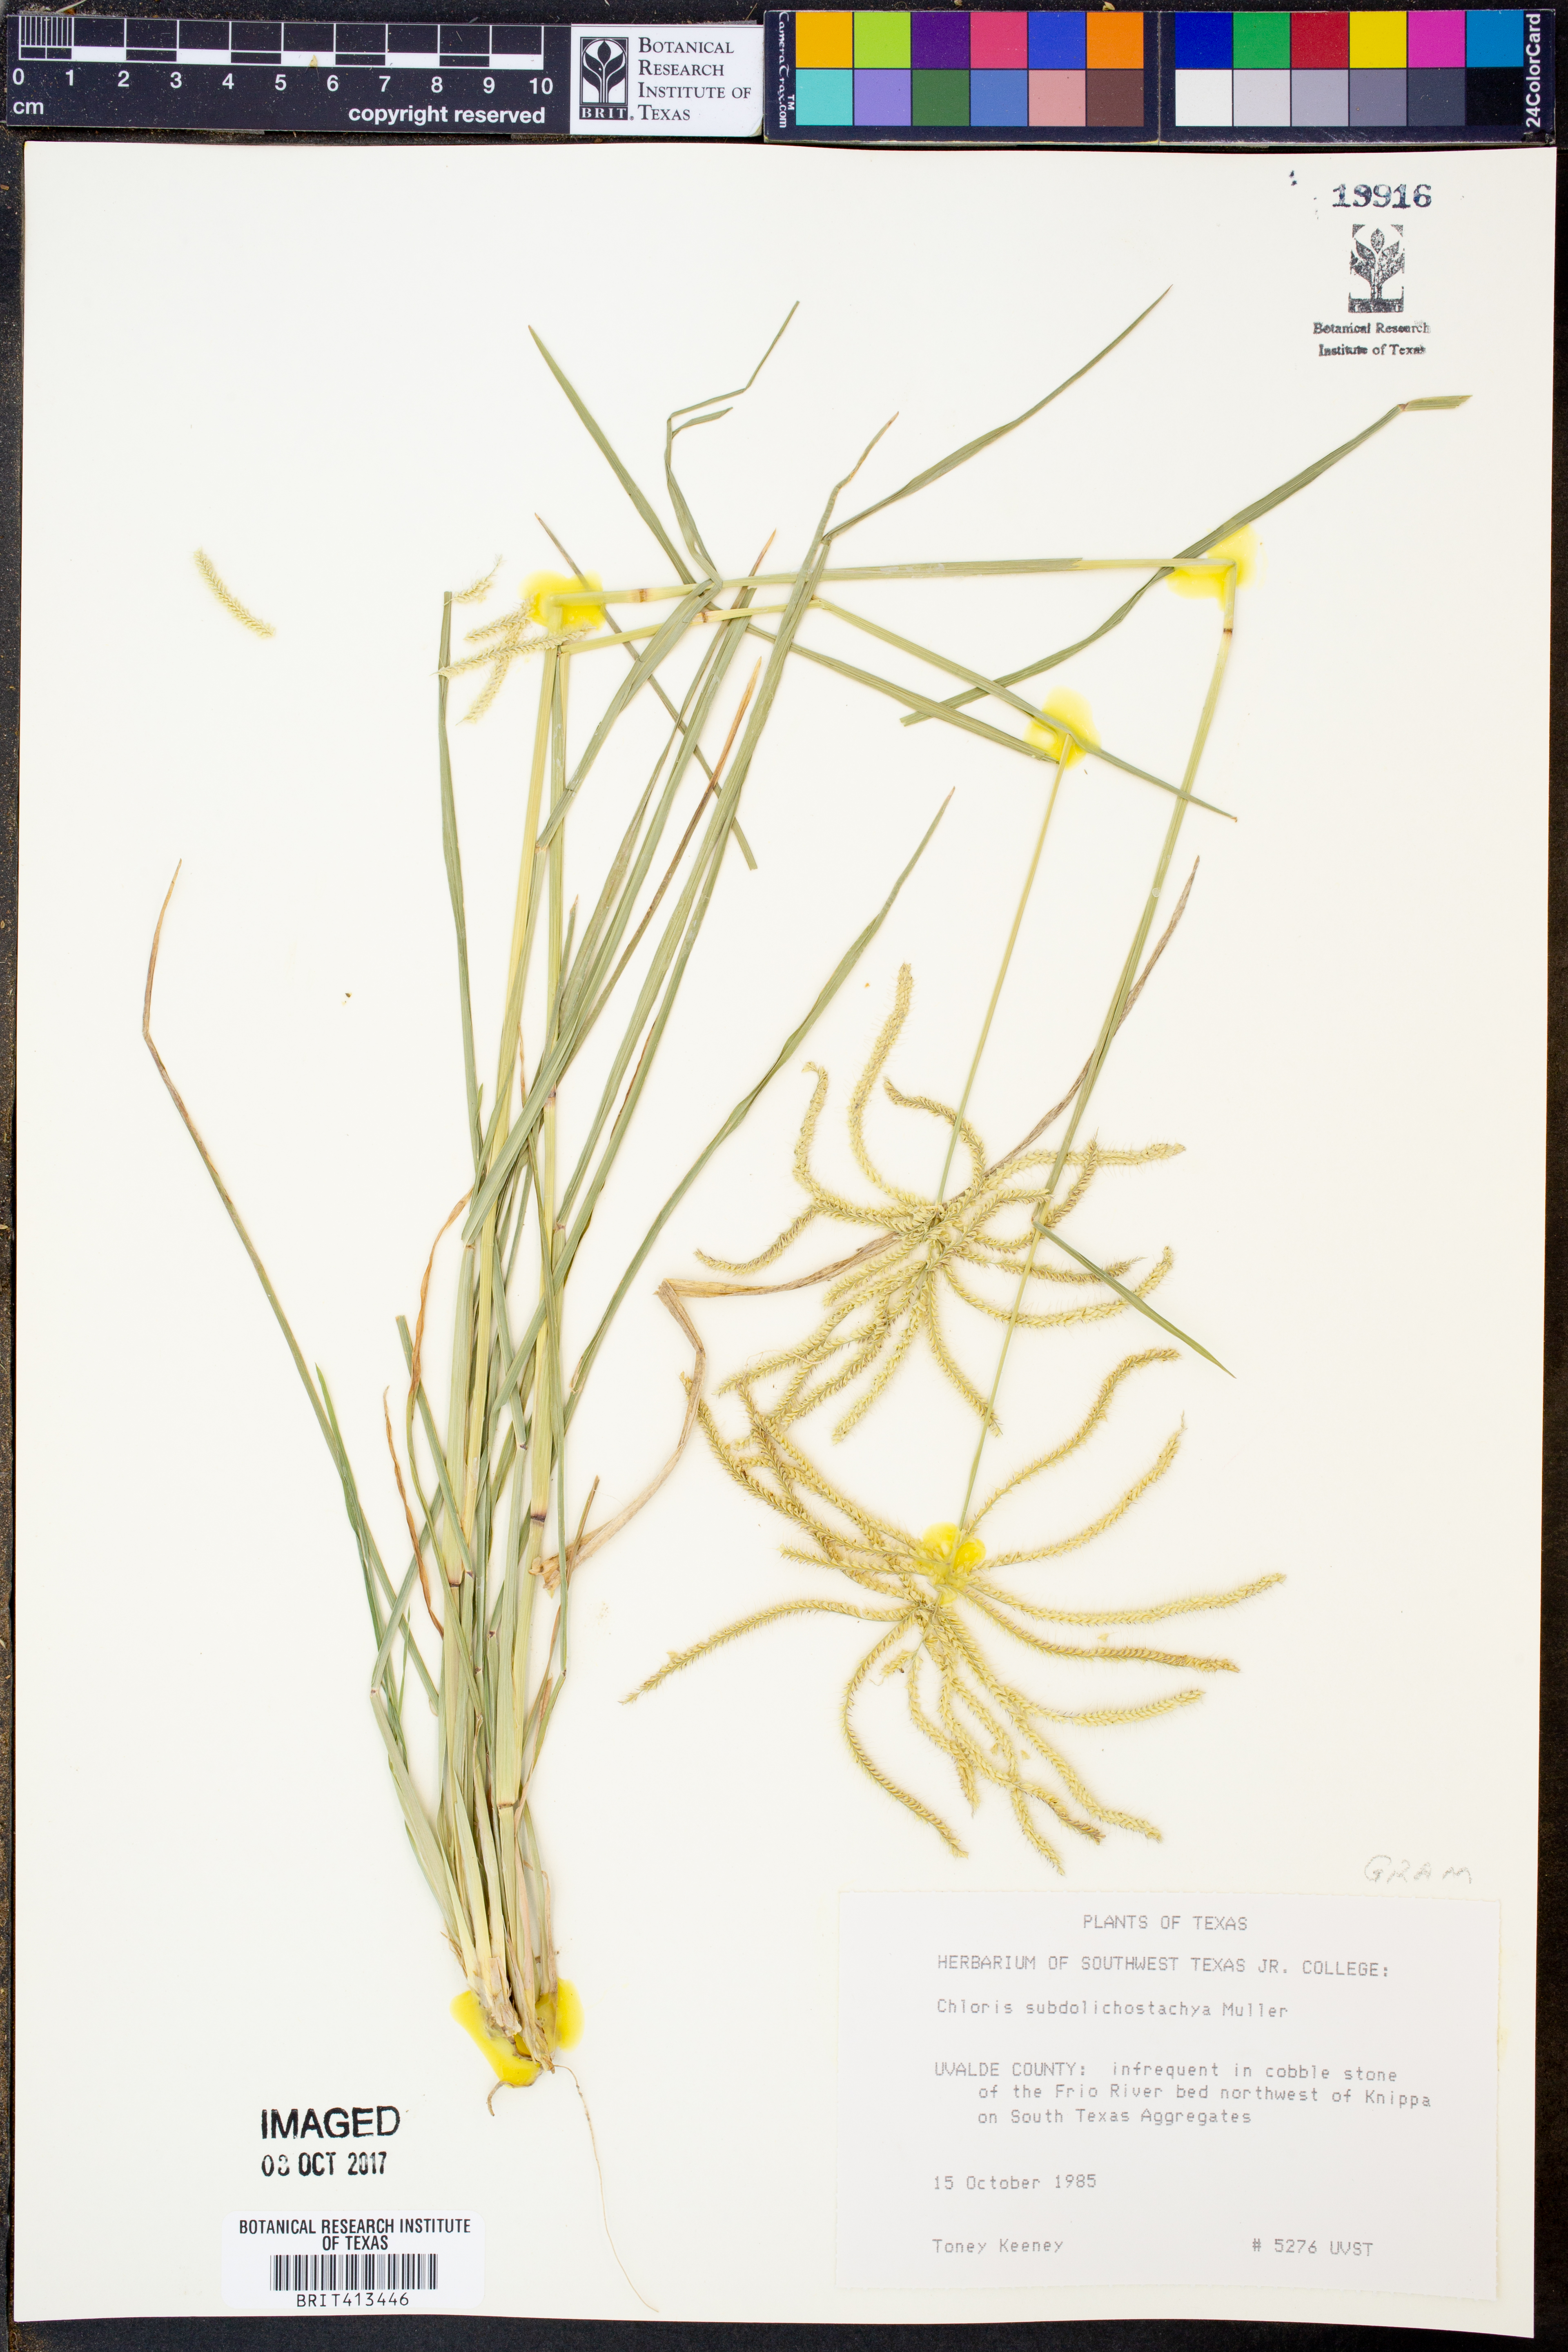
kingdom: Plantae
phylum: Tracheophyta
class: Liliopsida
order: Poales
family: Poaceae
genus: Chloris
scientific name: Chloris subdolichostachya
